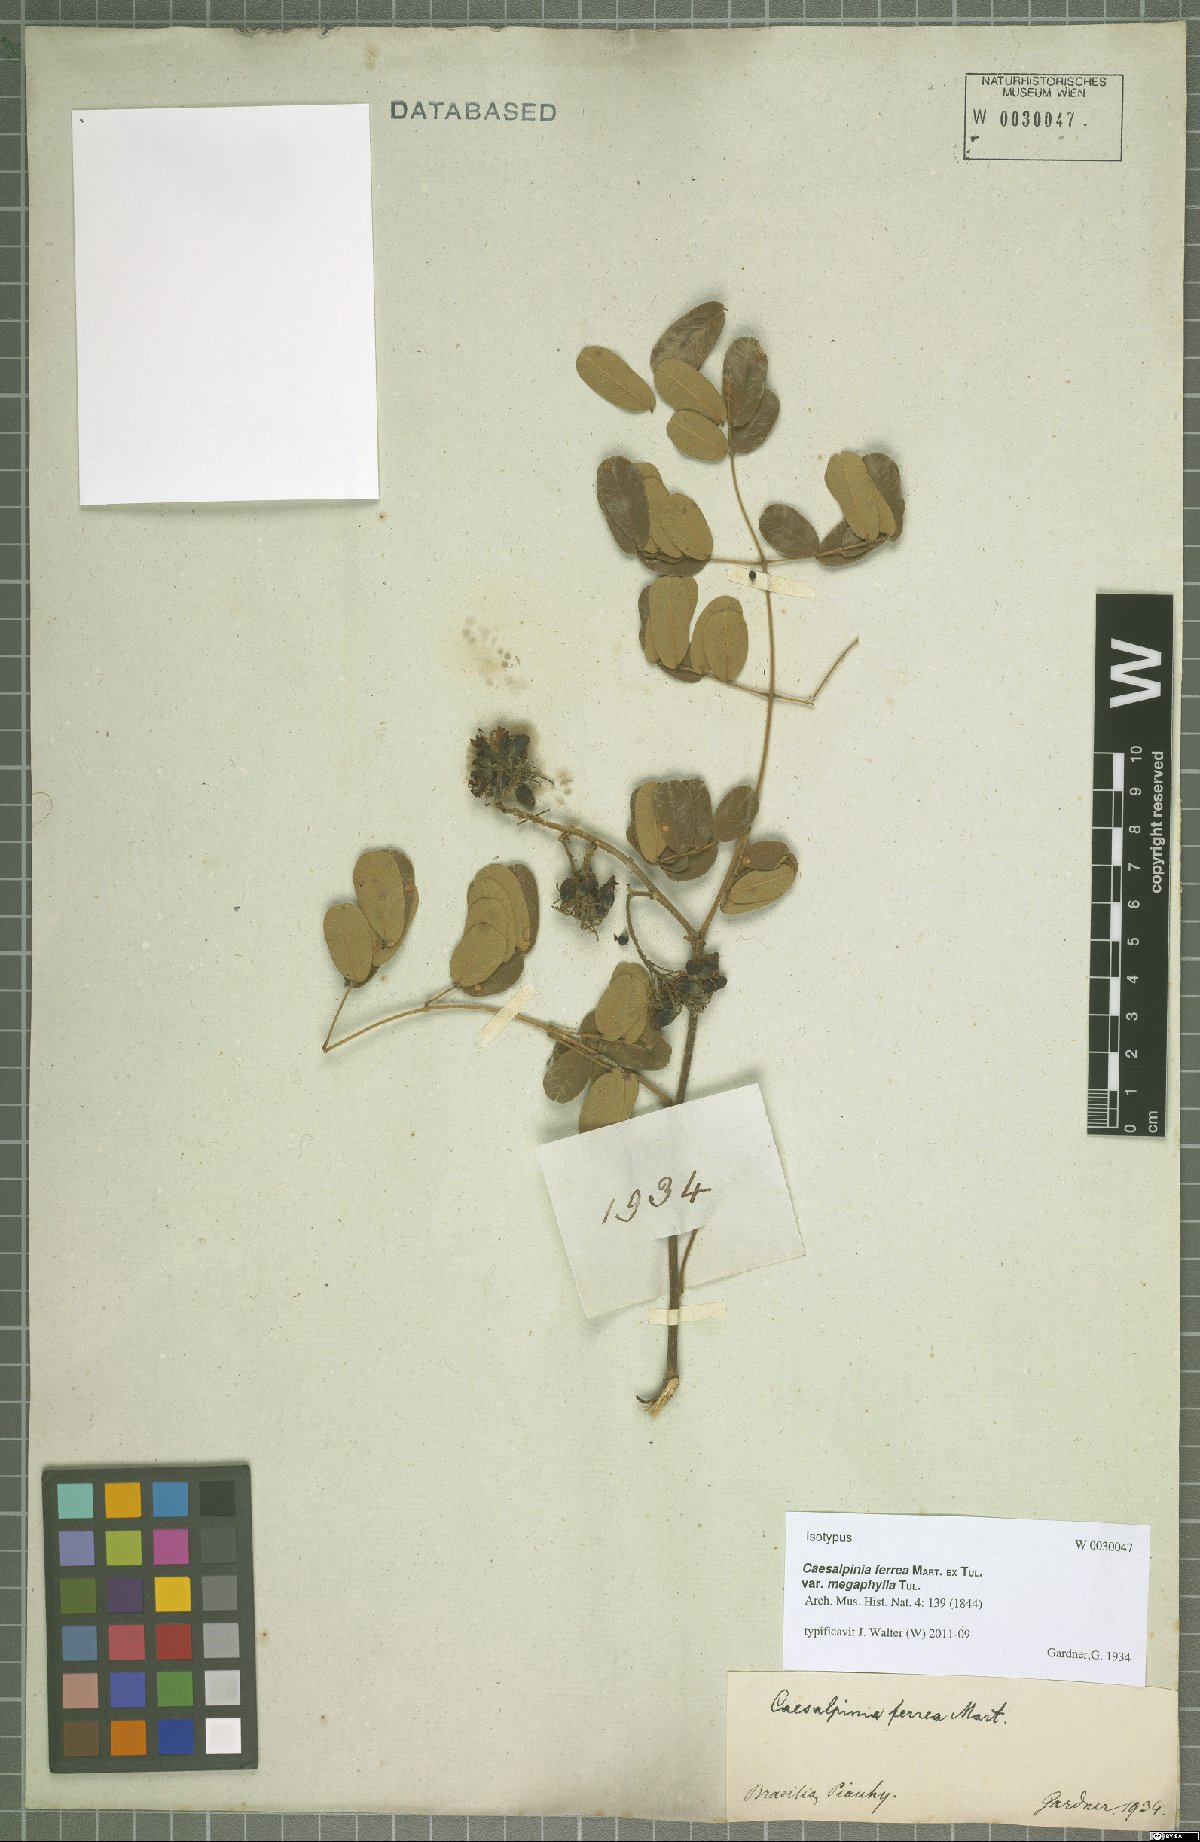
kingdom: Plantae
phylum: Tracheophyta
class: Magnoliopsida
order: Fabales
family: Fabaceae
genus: Libidibia
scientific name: Libidibia ferrea
